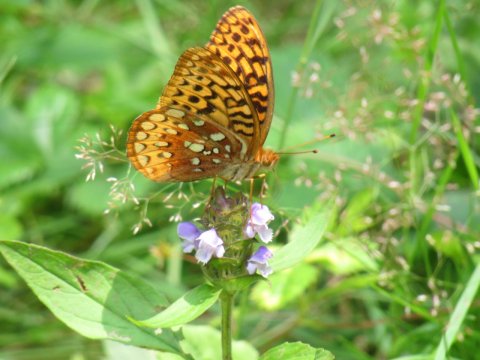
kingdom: Animalia
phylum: Arthropoda
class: Insecta
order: Lepidoptera
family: Nymphalidae
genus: Speyeria
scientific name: Speyeria cybele
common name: Great Spangled Fritillary
